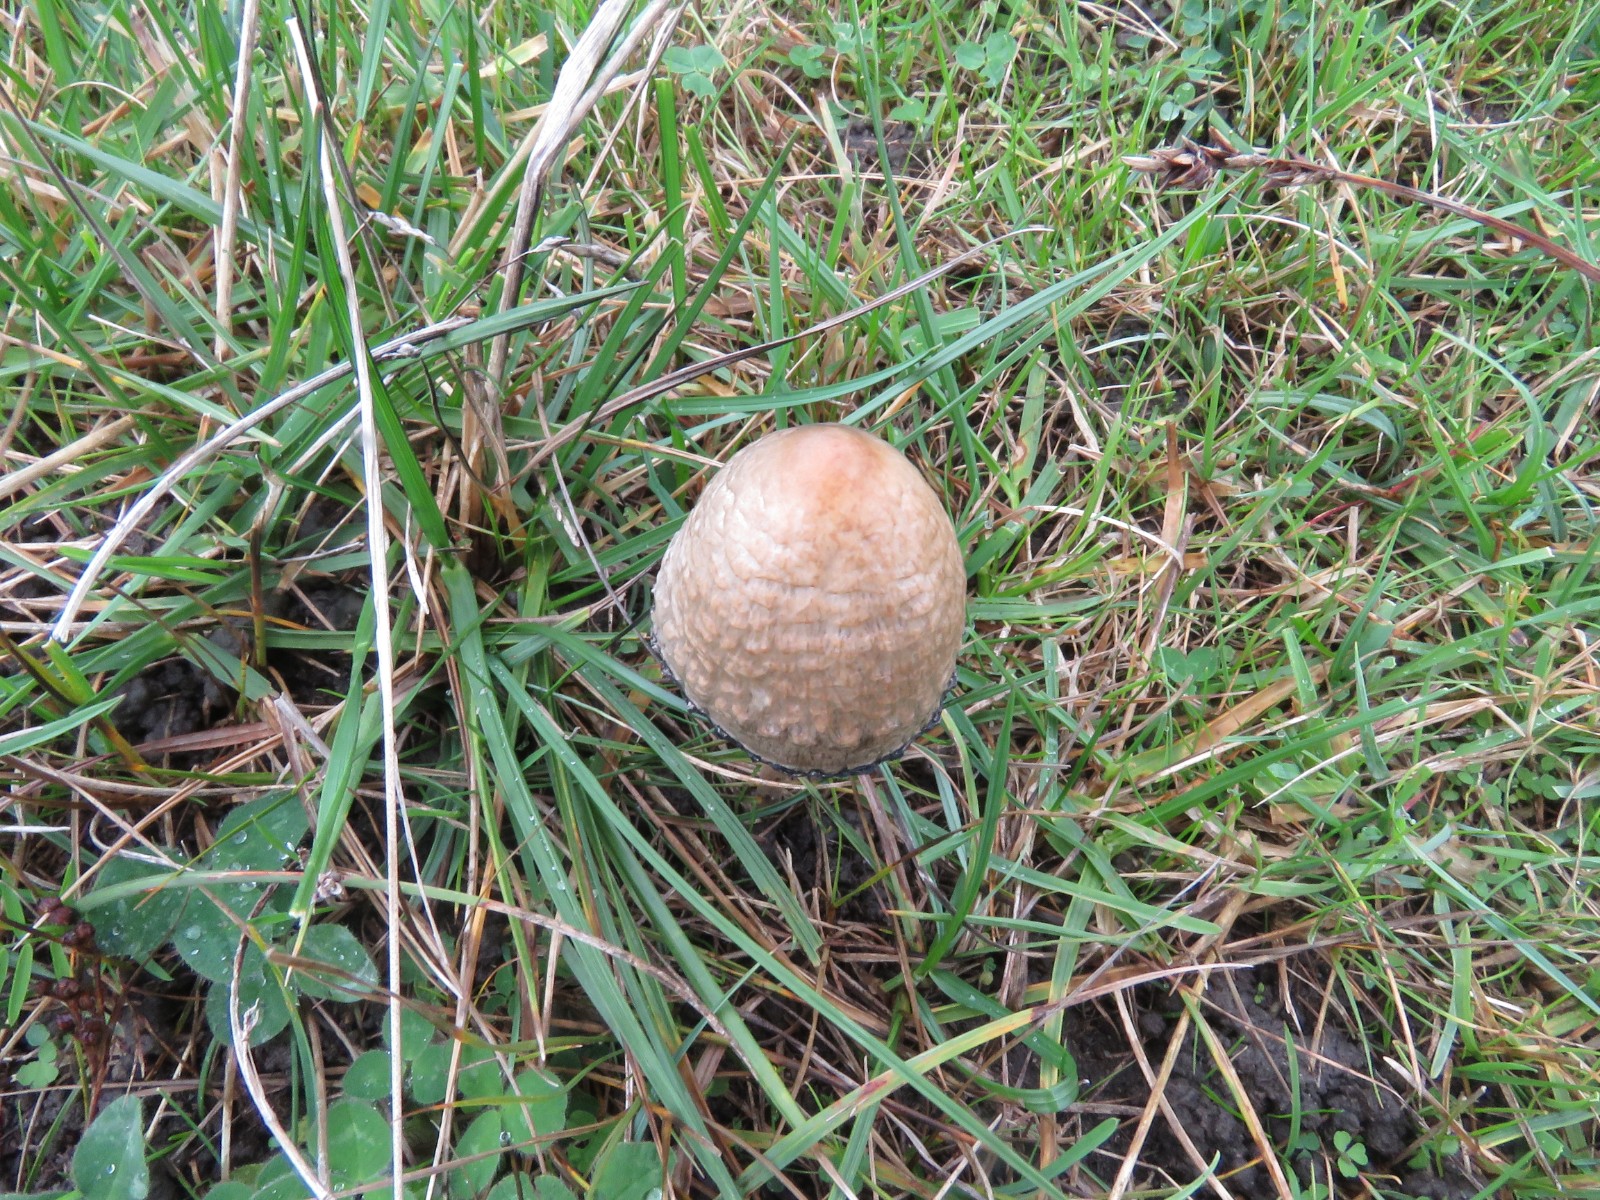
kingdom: Fungi
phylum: Basidiomycota
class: Agaricomycetes
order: Agaricales
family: Bolbitiaceae
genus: Panaeolus
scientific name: Panaeolus papilionaceus
